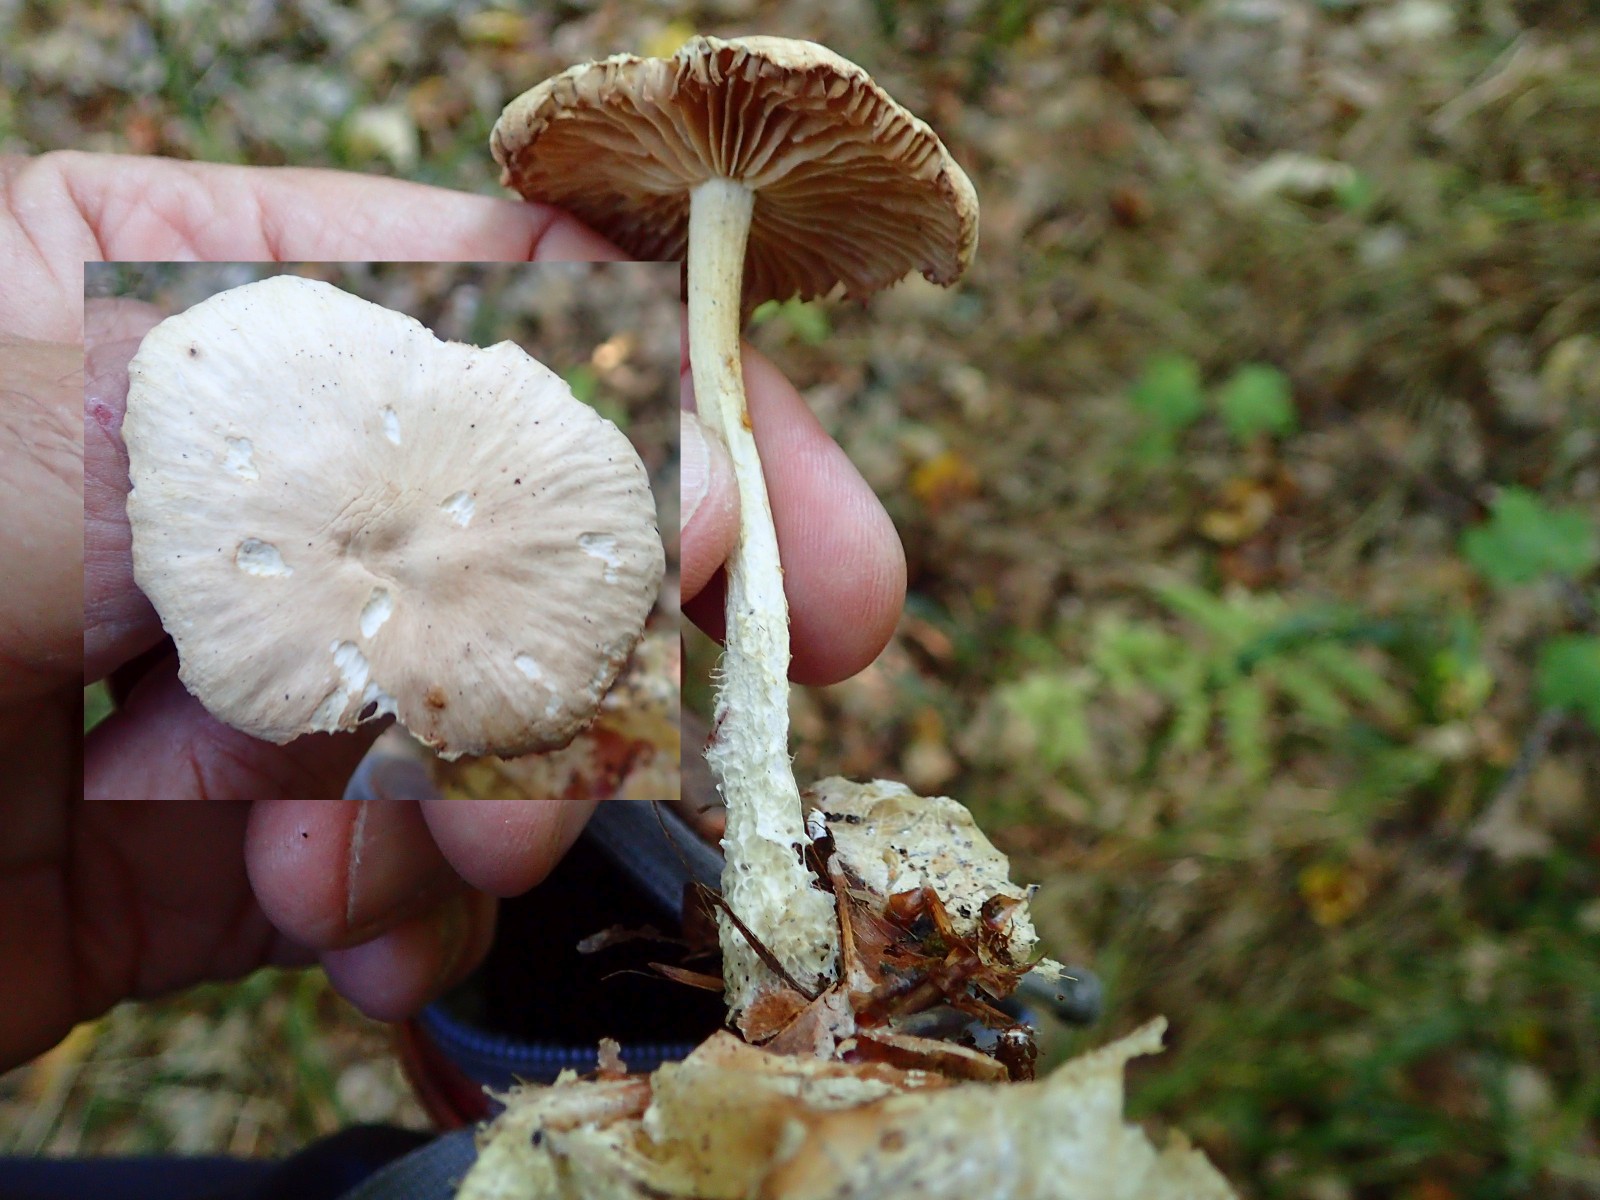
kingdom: Fungi
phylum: Basidiomycota
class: Agaricomycetes
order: Agaricales
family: Omphalotaceae
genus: Collybiopsis
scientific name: Collybiopsis peronata
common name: bestøvlet fladhat
